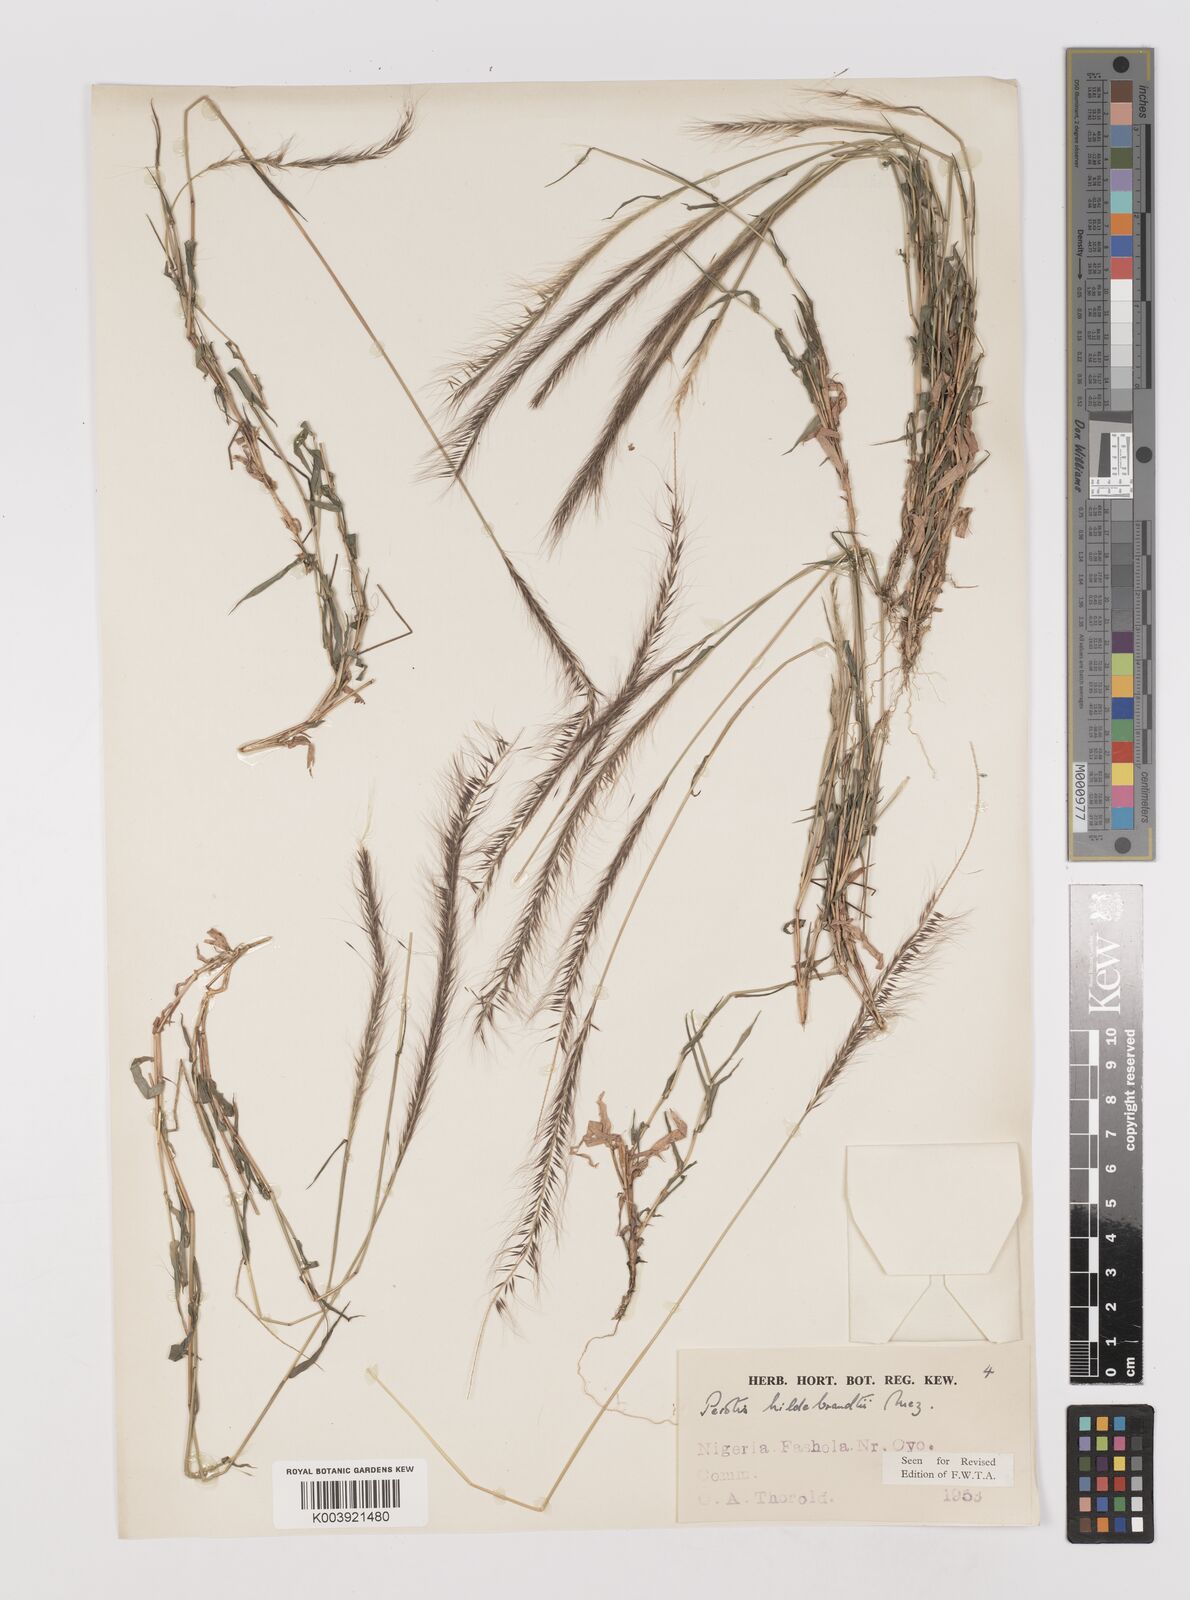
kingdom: Plantae
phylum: Tracheophyta
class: Liliopsida
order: Poales
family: Poaceae
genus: Perotis
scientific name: Perotis hildebrandtii
